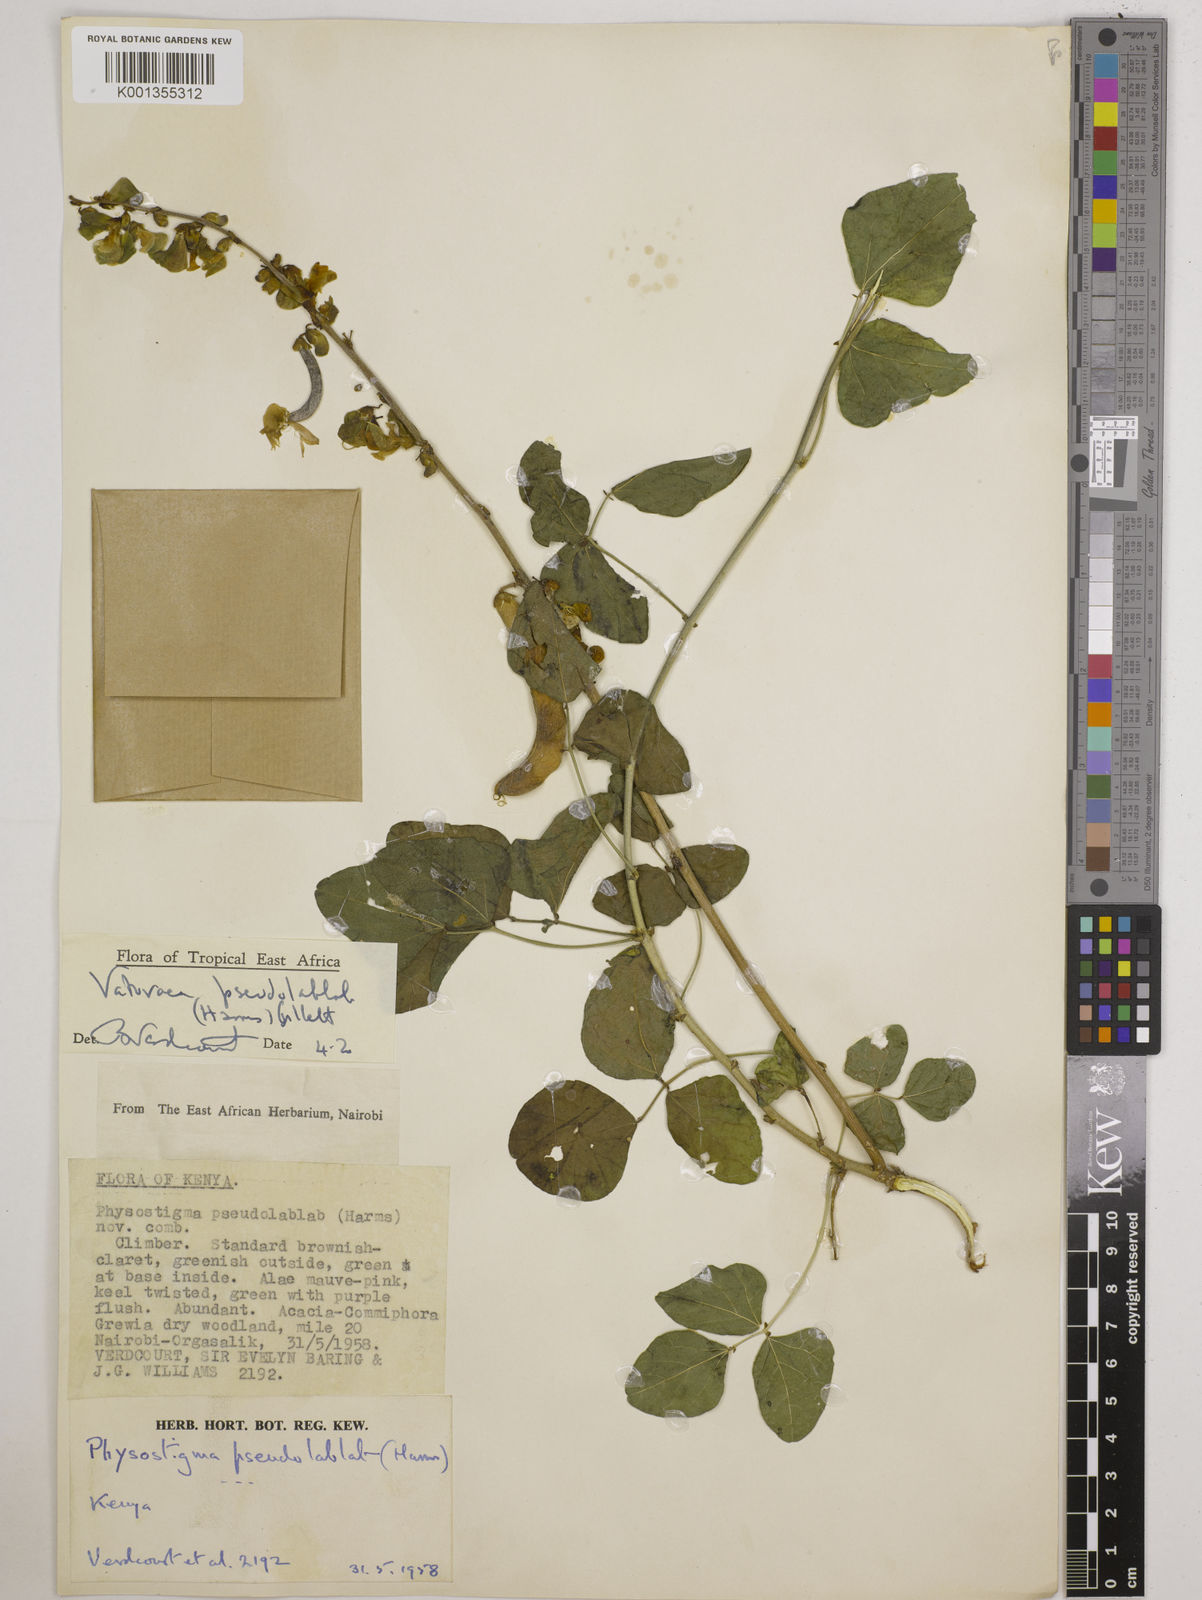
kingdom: Plantae
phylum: Tracheophyta
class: Magnoliopsida
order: Fabales
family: Fabaceae
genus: Vatovaea
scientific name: Vatovaea pseudolablab
